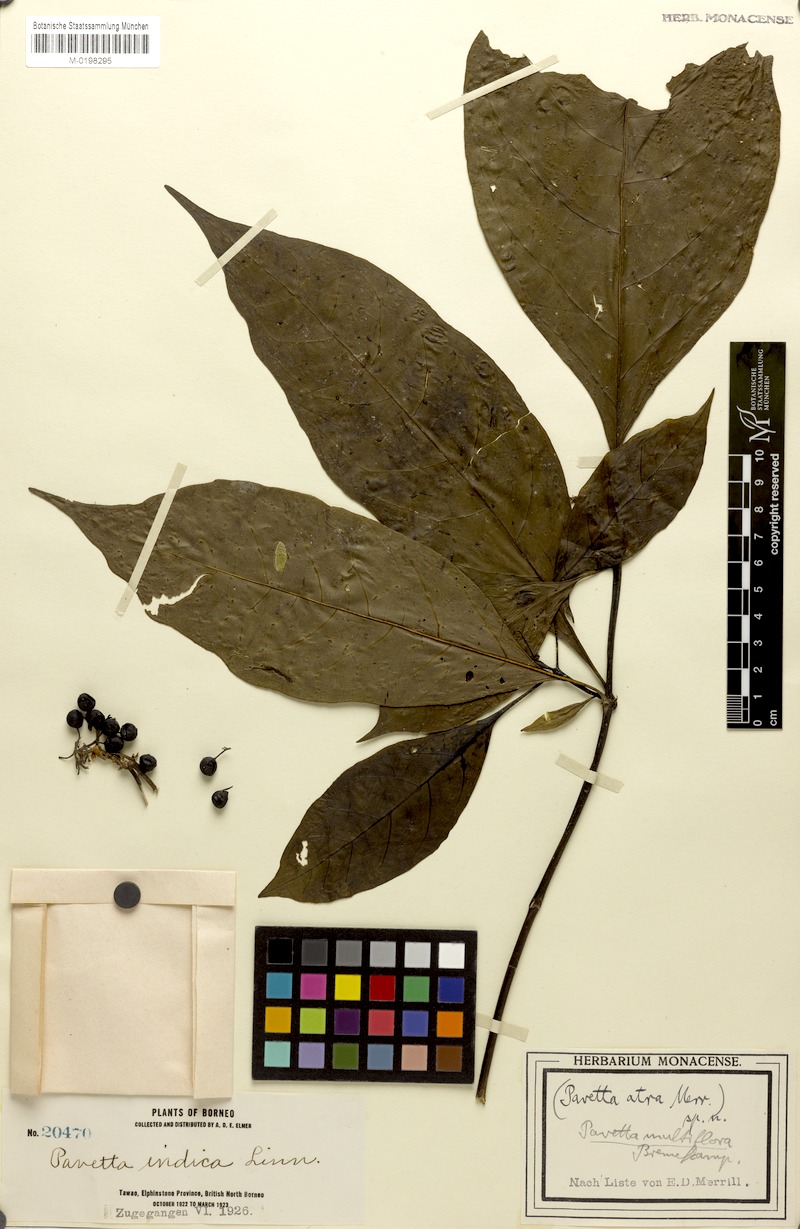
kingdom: Plantae
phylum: Tracheophyta
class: Magnoliopsida
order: Gentianales
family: Rubiaceae
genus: Tarenna
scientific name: Tarenna ciliolata
